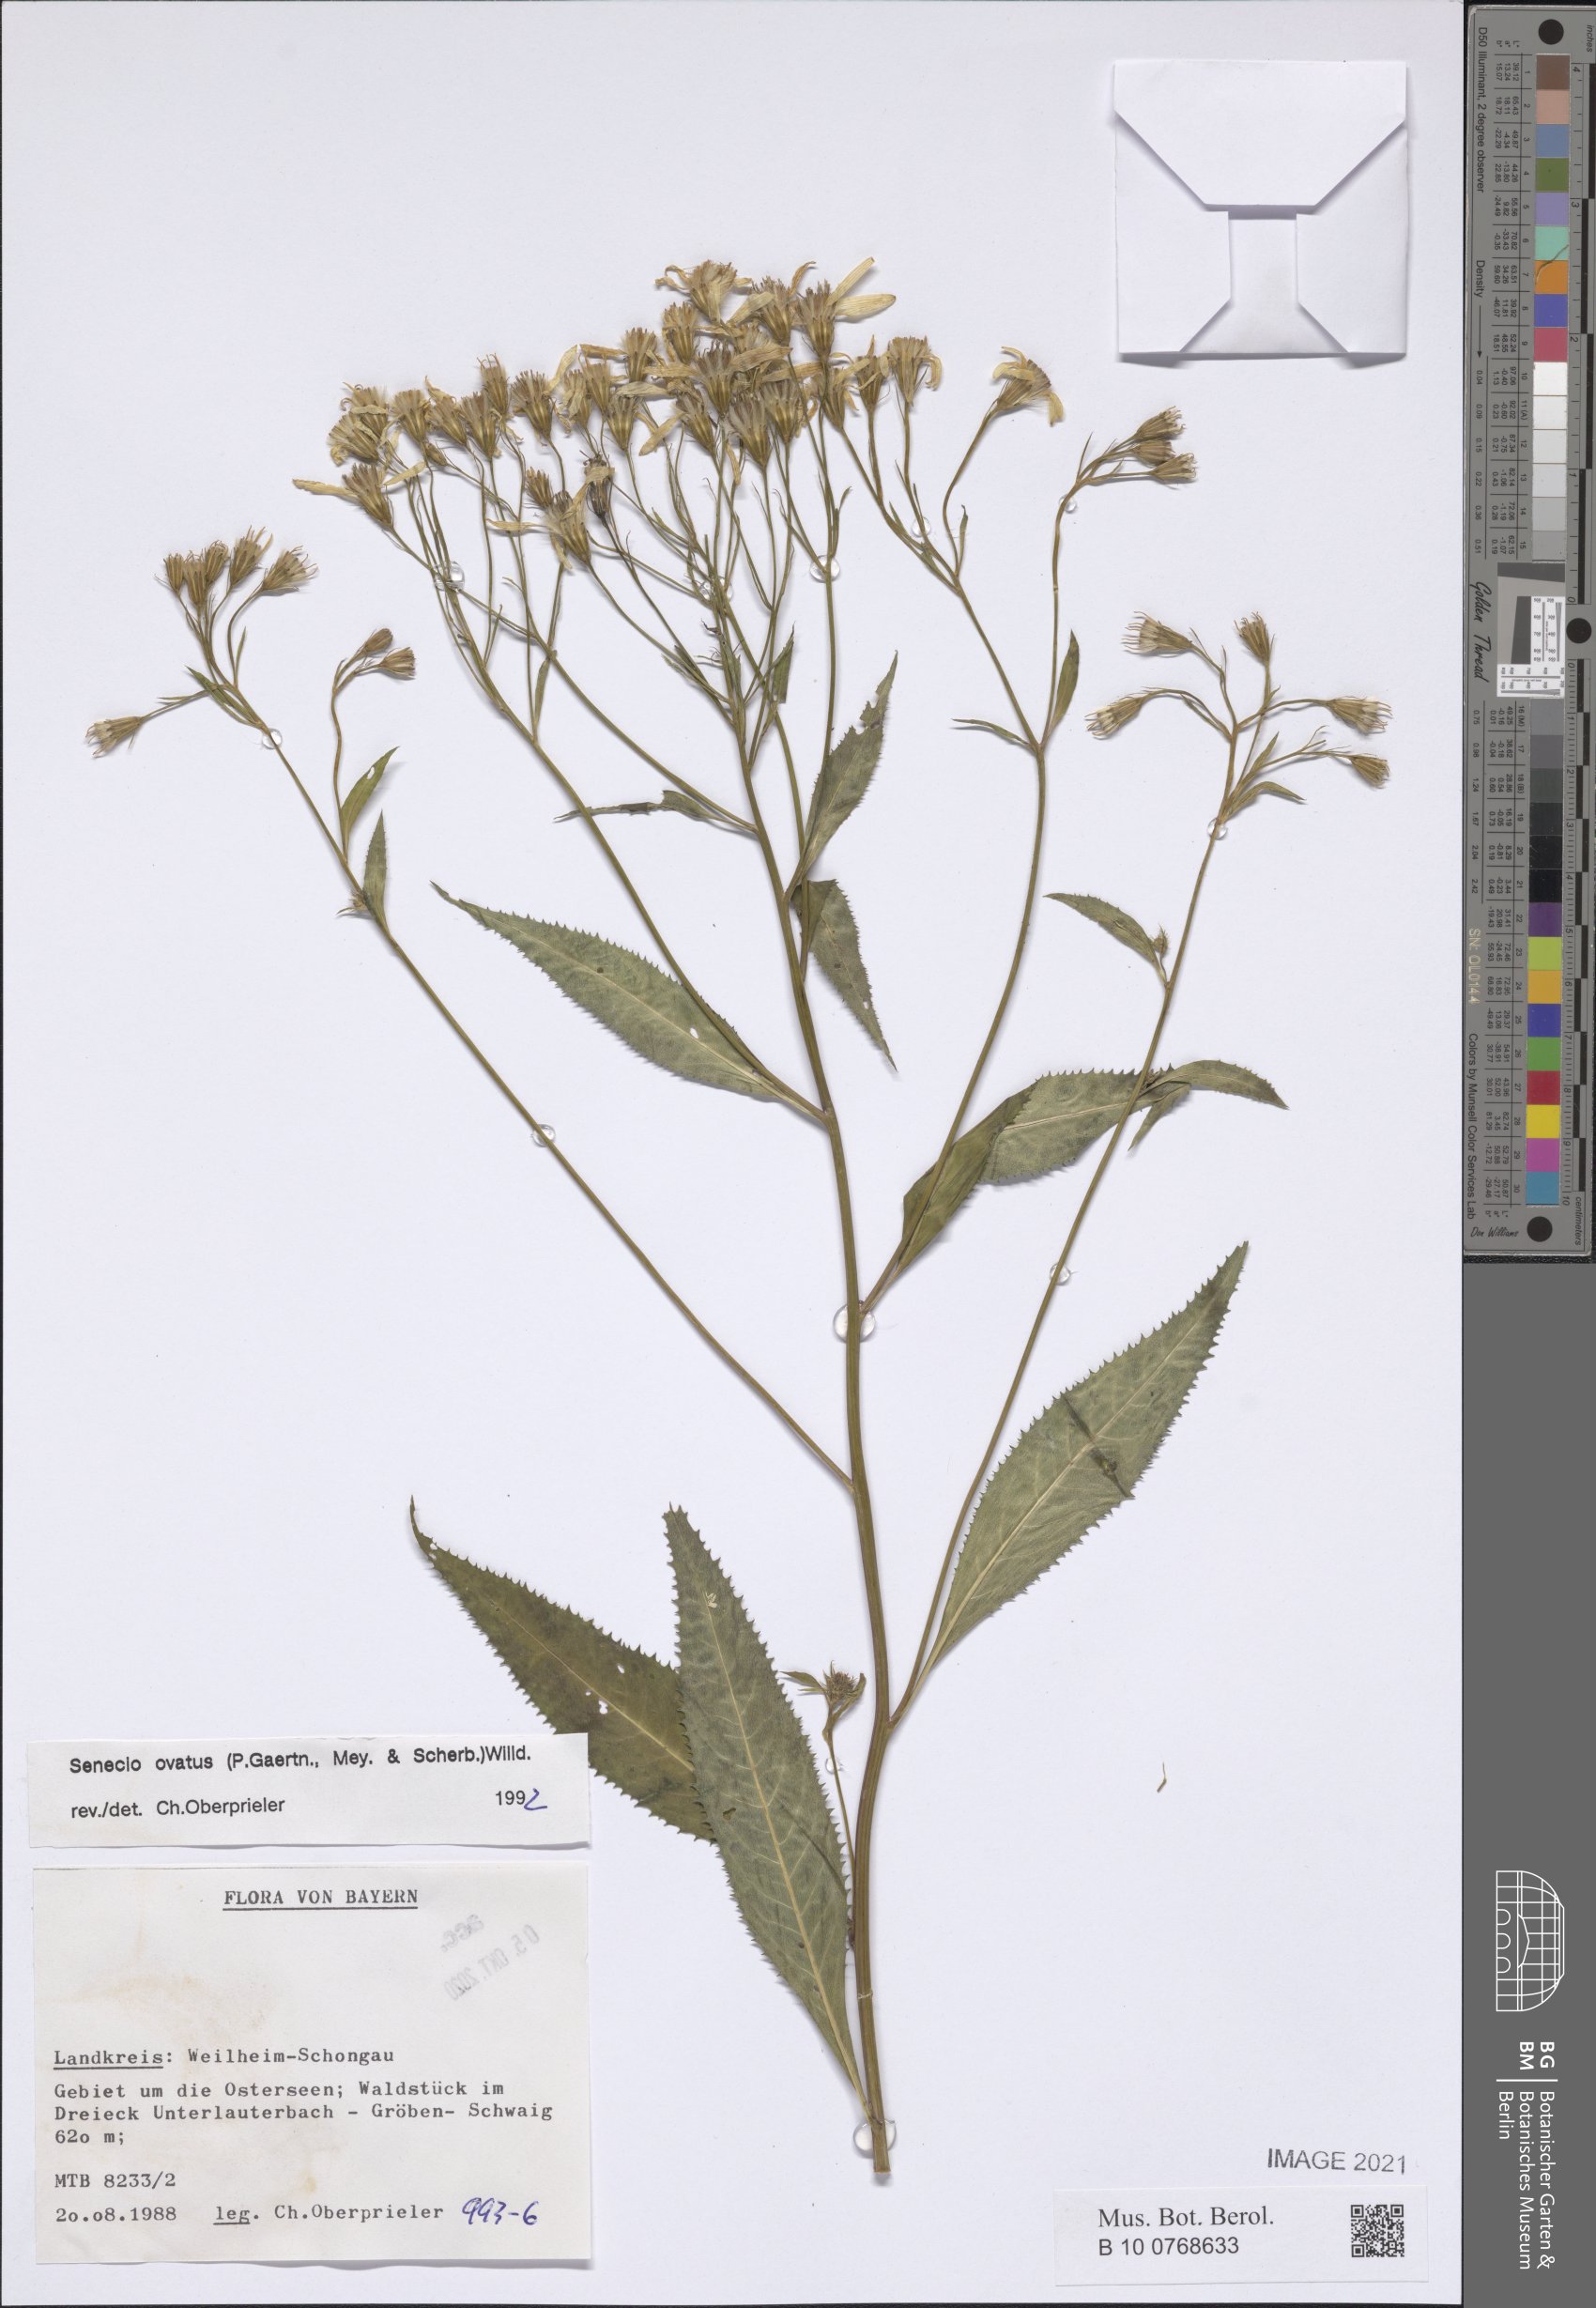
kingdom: Plantae
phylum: Tracheophyta
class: Magnoliopsida
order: Asterales
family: Asteraceae
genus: Senecio
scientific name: Senecio ovatus
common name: Wood ragwort
